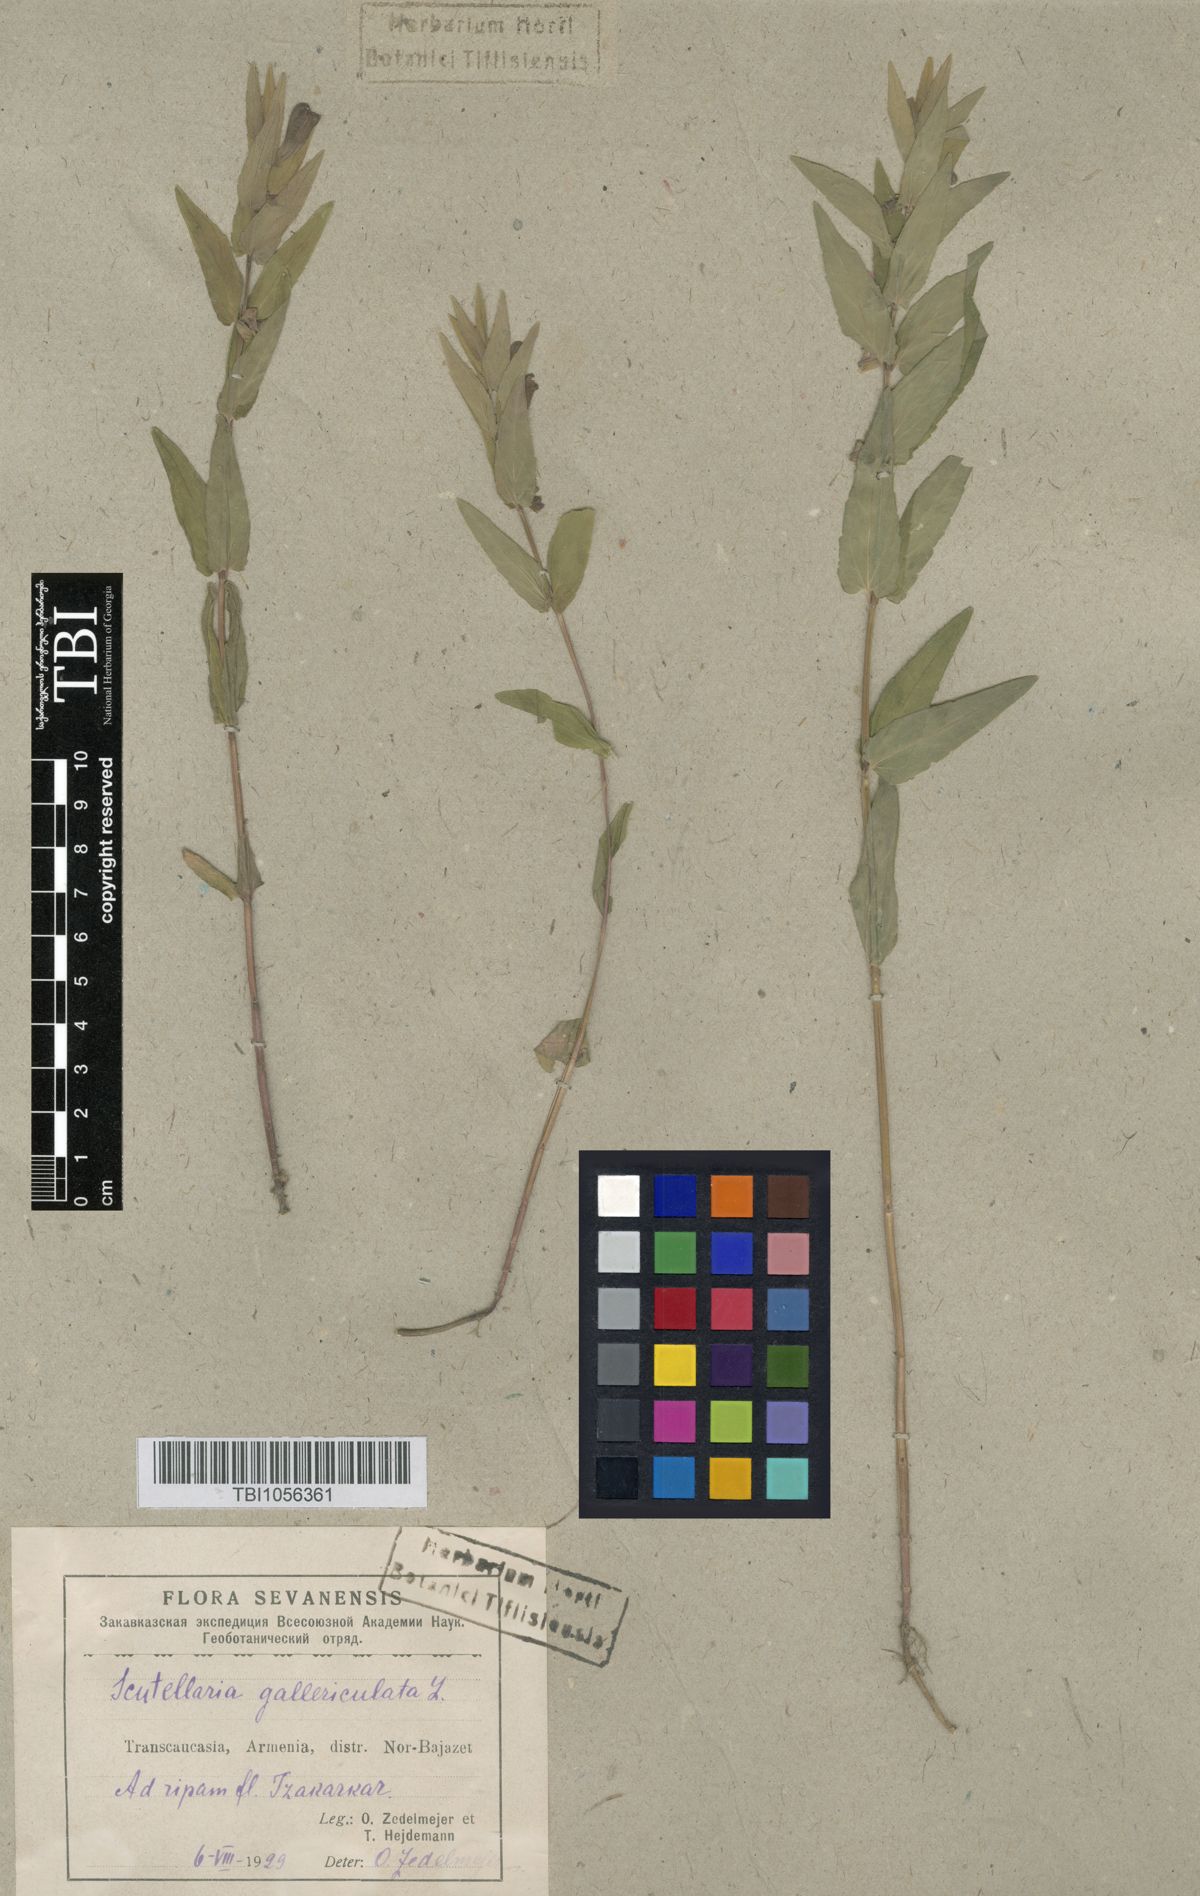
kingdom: Plantae
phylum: Tracheophyta
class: Magnoliopsida
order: Lamiales
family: Lamiaceae
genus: Scutellaria
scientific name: Scutellaria galericulata
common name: Skullcap
